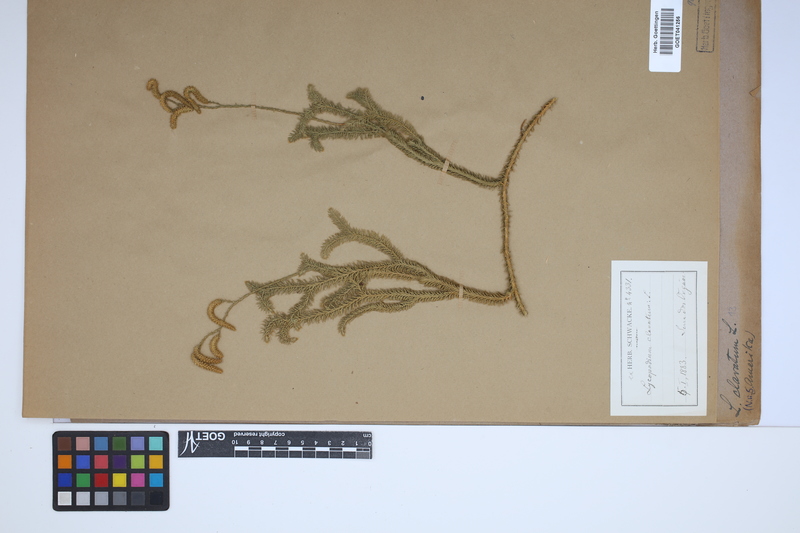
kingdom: Plantae
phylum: Tracheophyta
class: Lycopodiopsida
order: Lycopodiales
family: Lycopodiaceae
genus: Lycopodium
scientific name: Lycopodium clavatum
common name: Stag's-horn clubmoss
